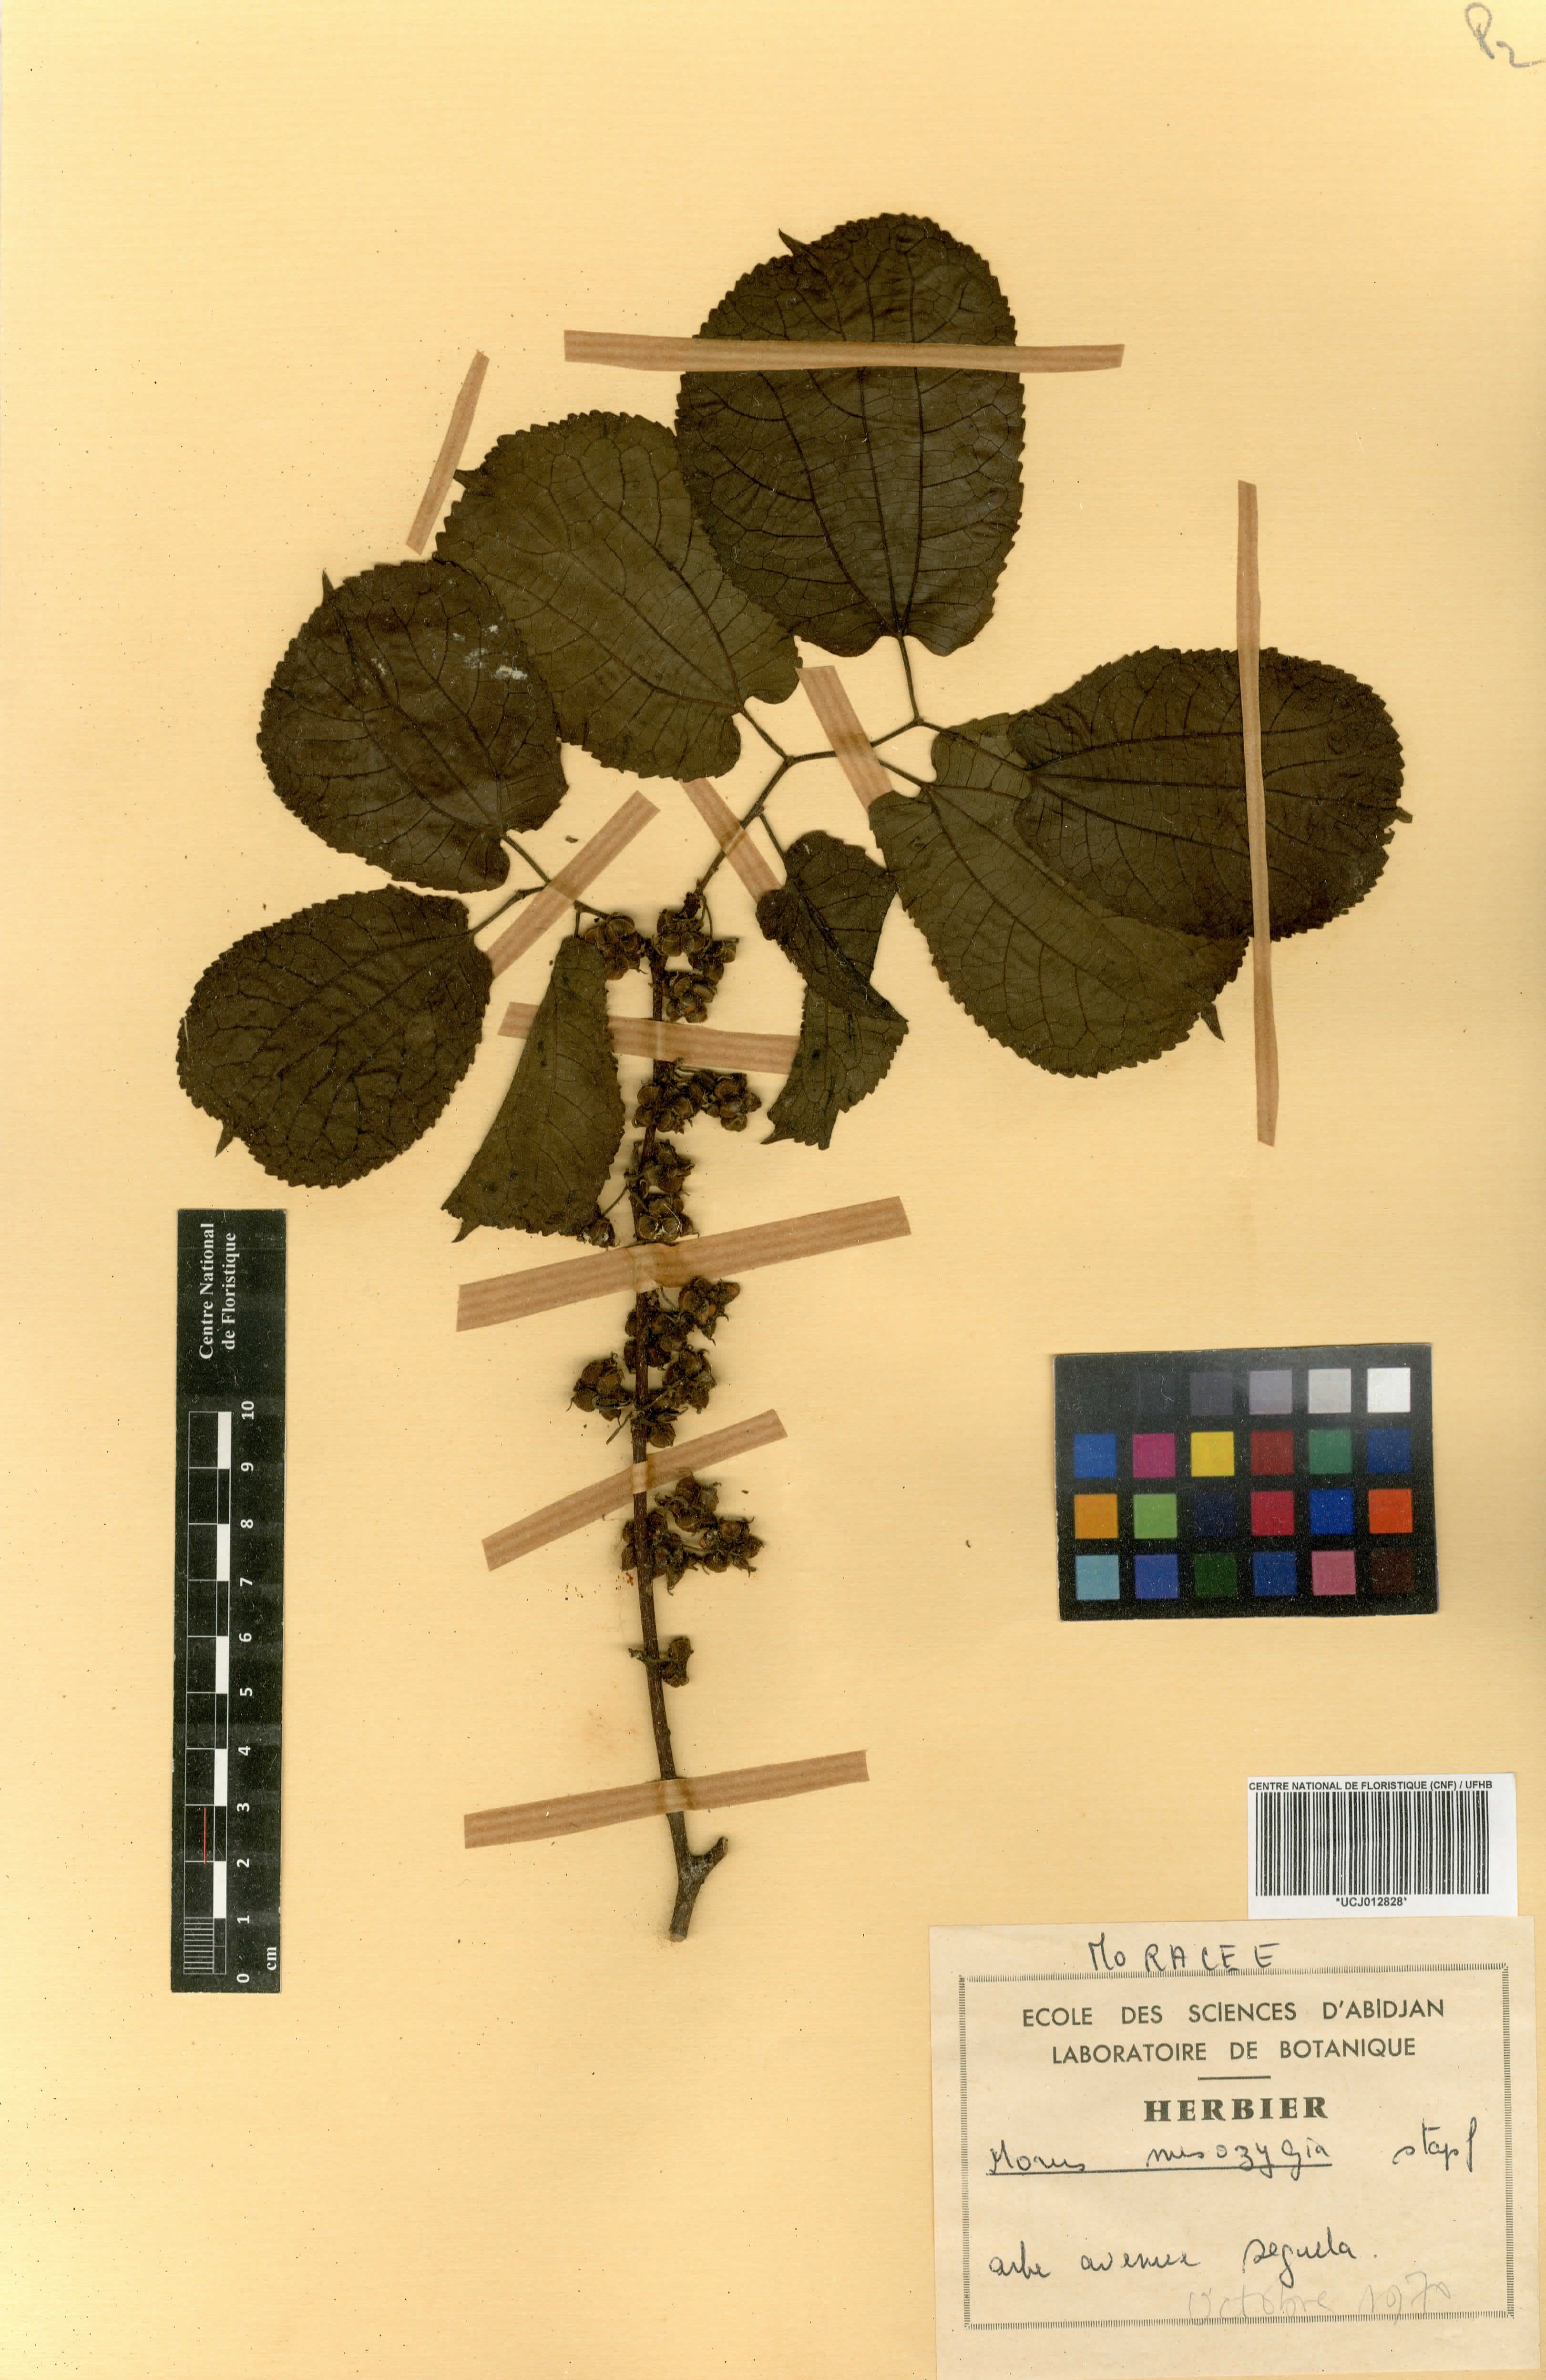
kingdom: Plantae
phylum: Tracheophyta
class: Magnoliopsida
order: Rosales
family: Moraceae
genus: Afromorus
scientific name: Afromorus mesozygia
